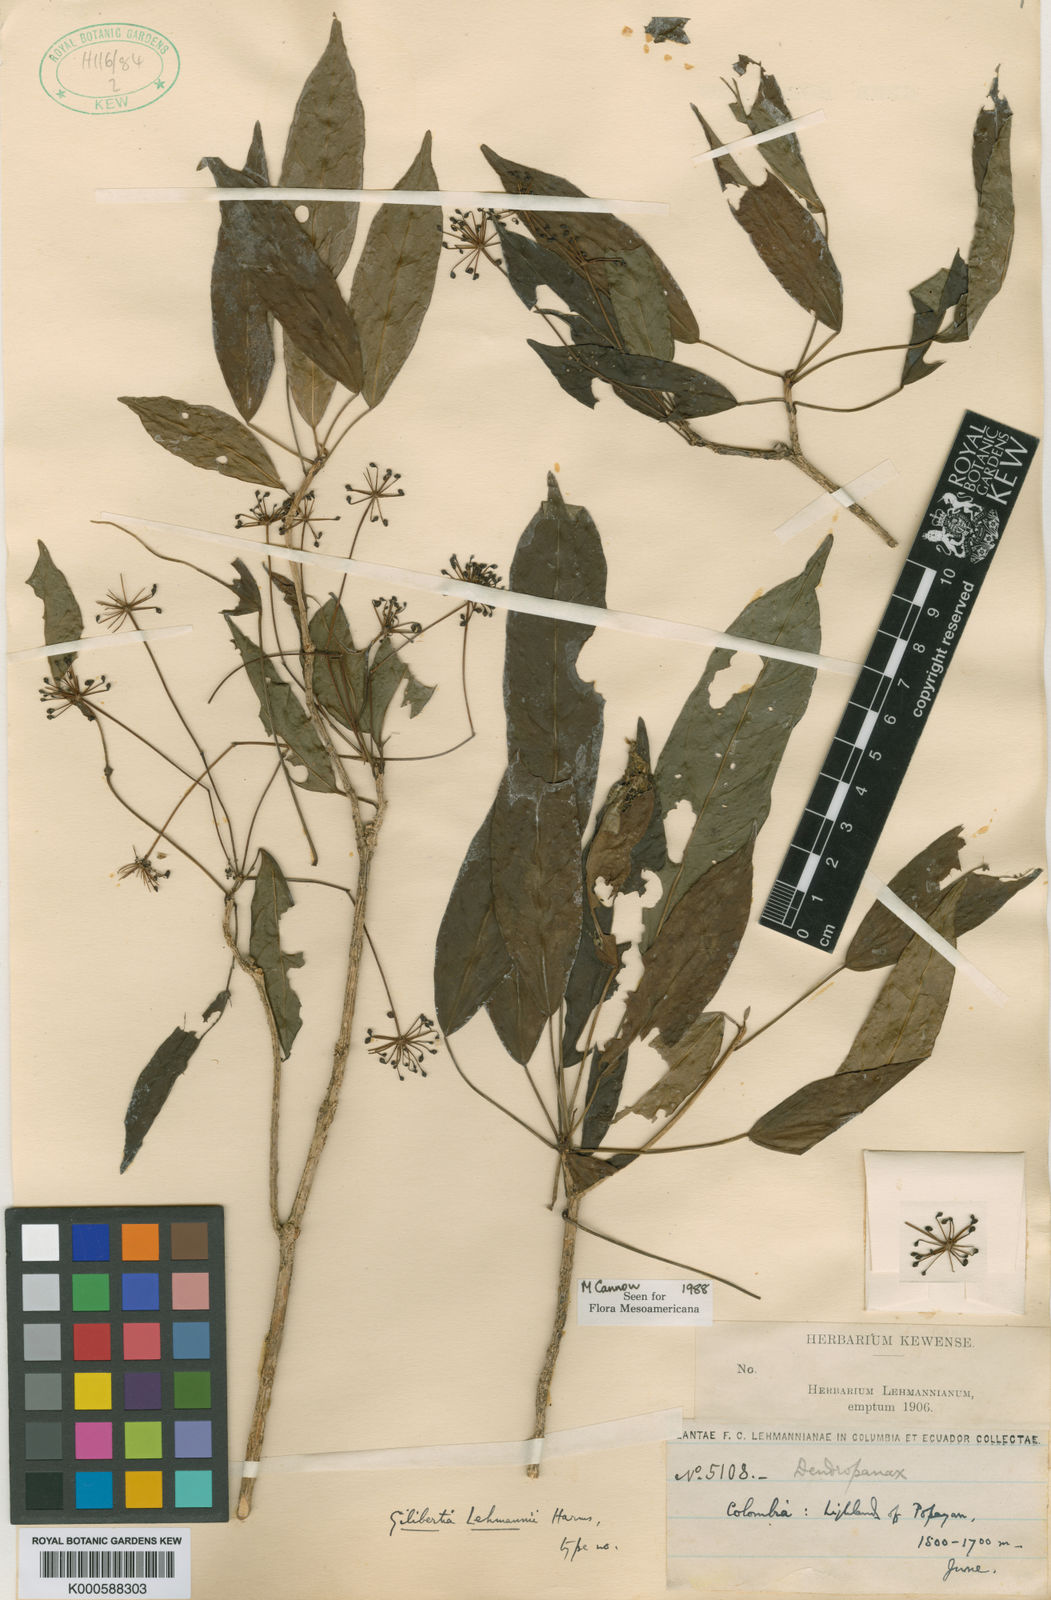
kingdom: Plantae
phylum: Tracheophyta
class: Magnoliopsida
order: Apiales
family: Araliaceae
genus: Dendropanax
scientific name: Dendropanax lehmannii
